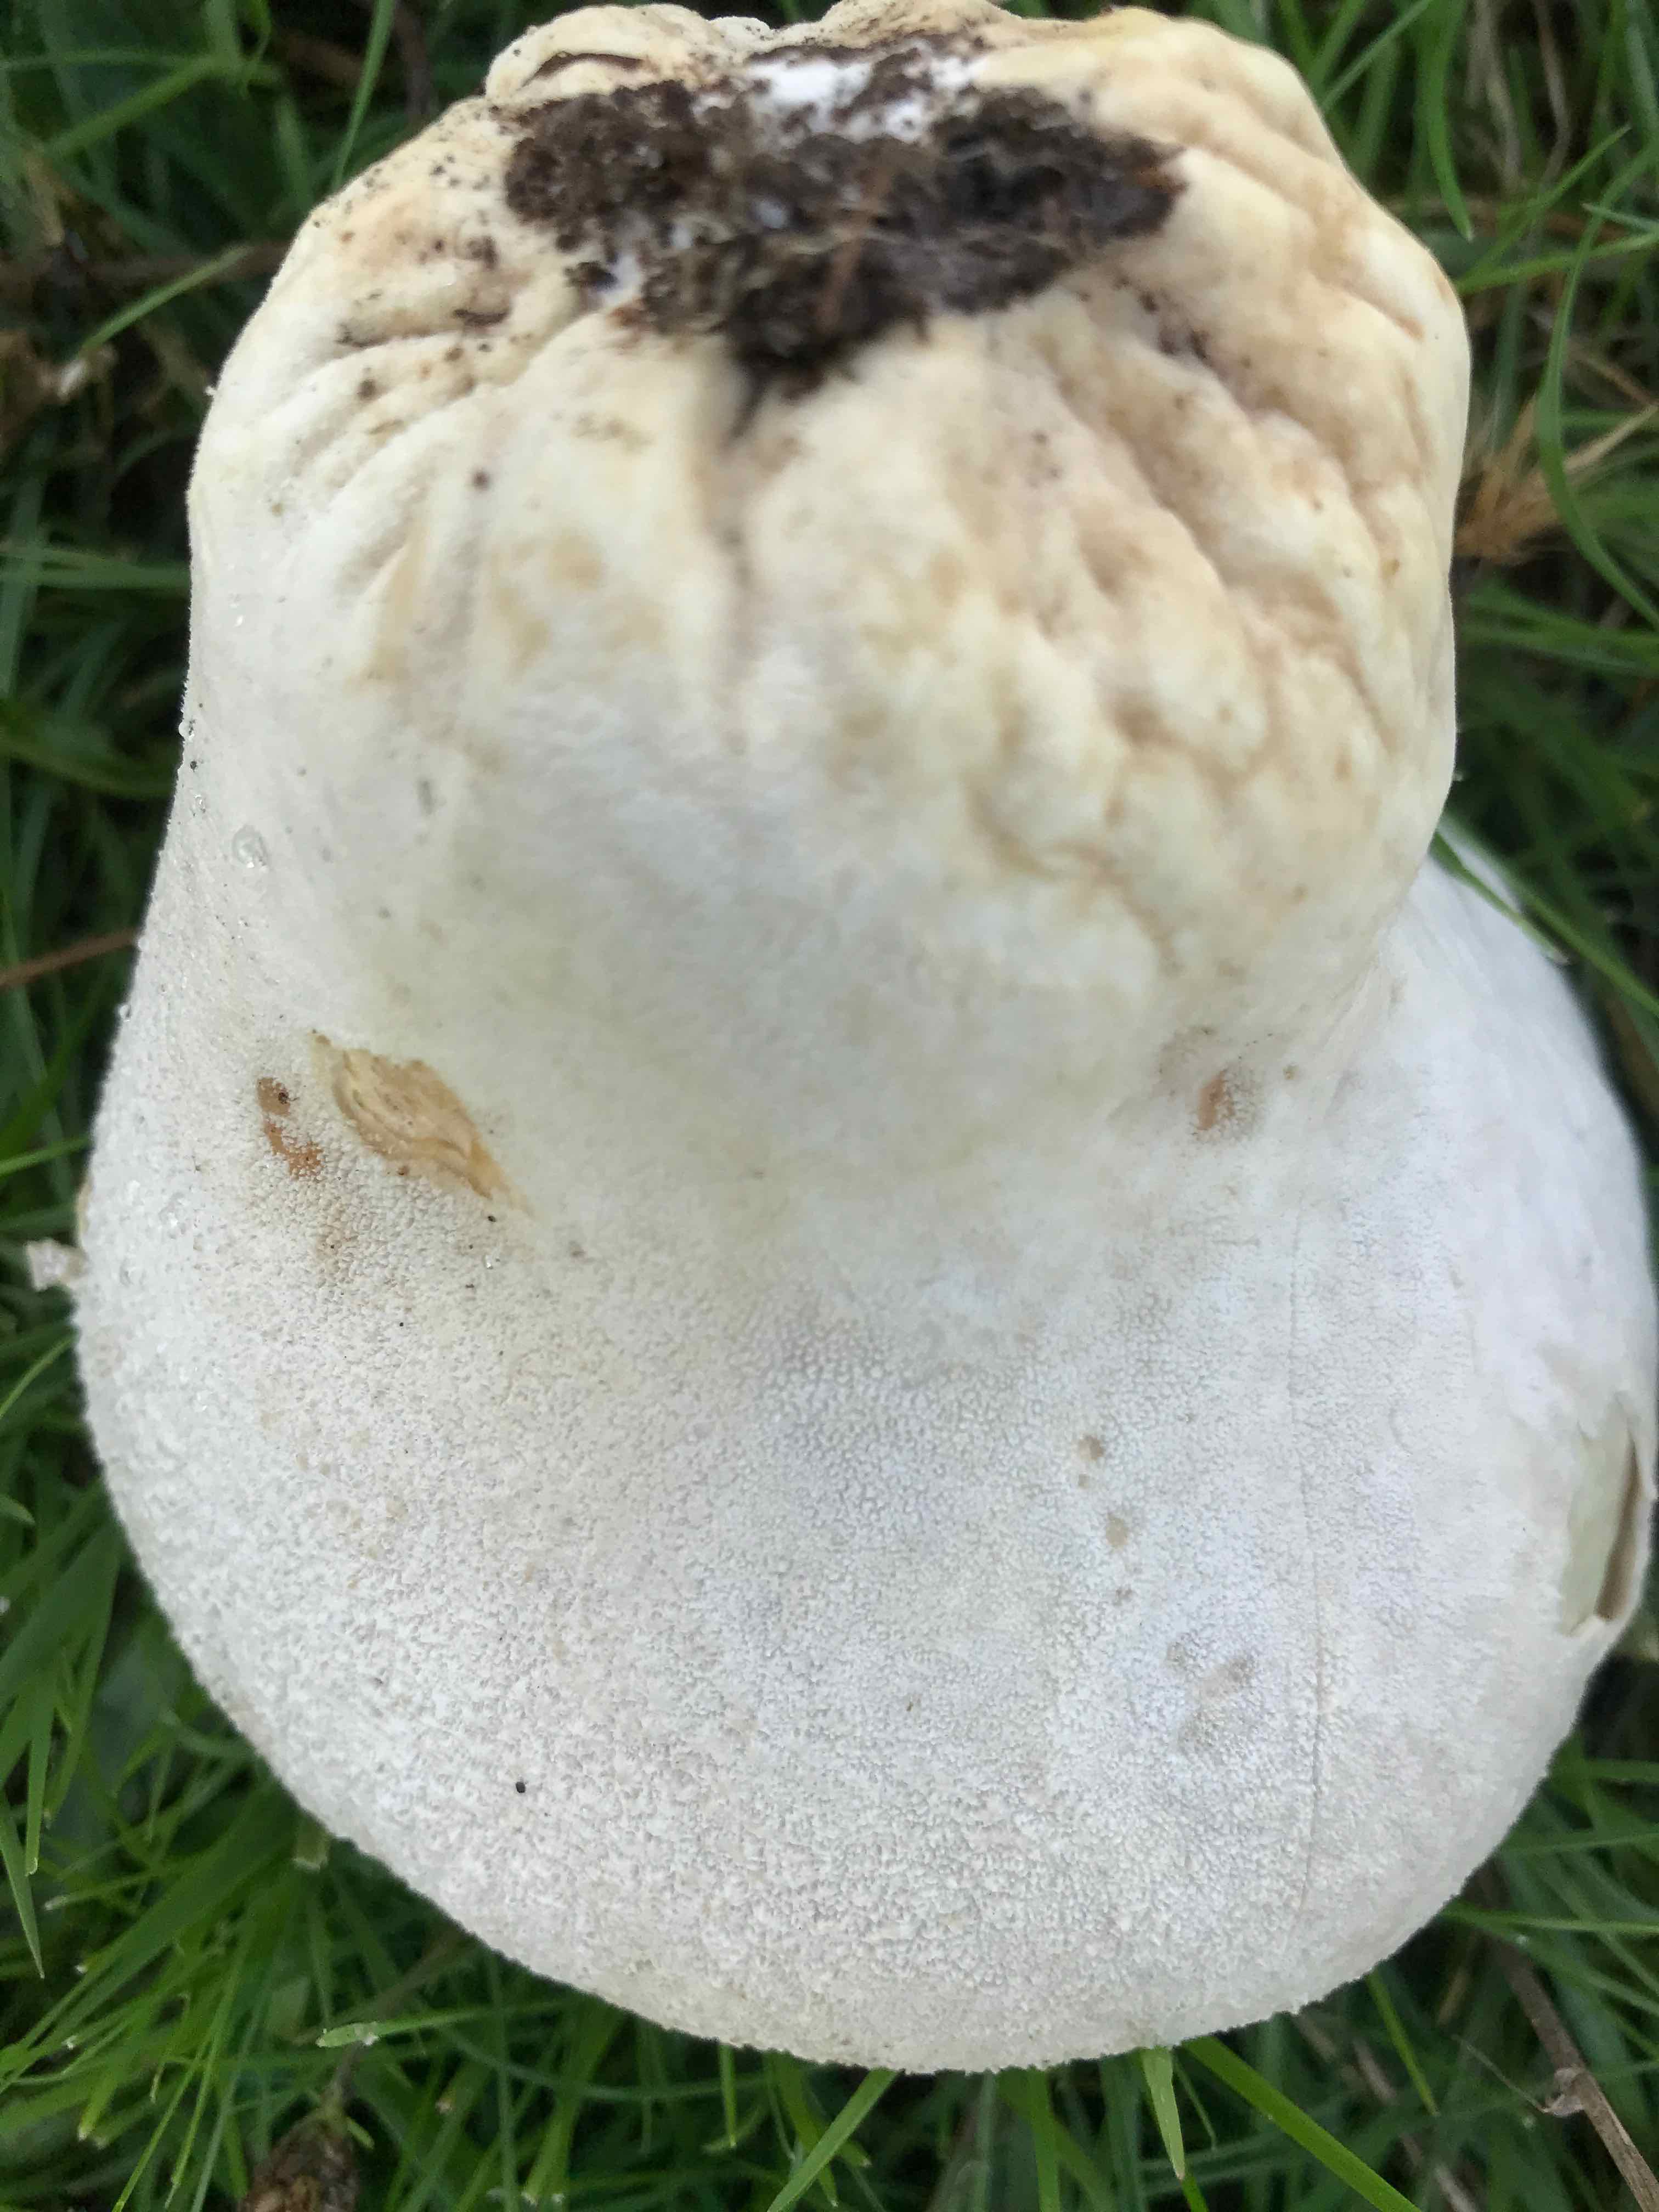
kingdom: Fungi
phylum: Basidiomycota
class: Agaricomycetes
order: Agaricales
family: Lycoperdaceae
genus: Bovistella
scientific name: Bovistella utriformis
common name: skællet støvbold
